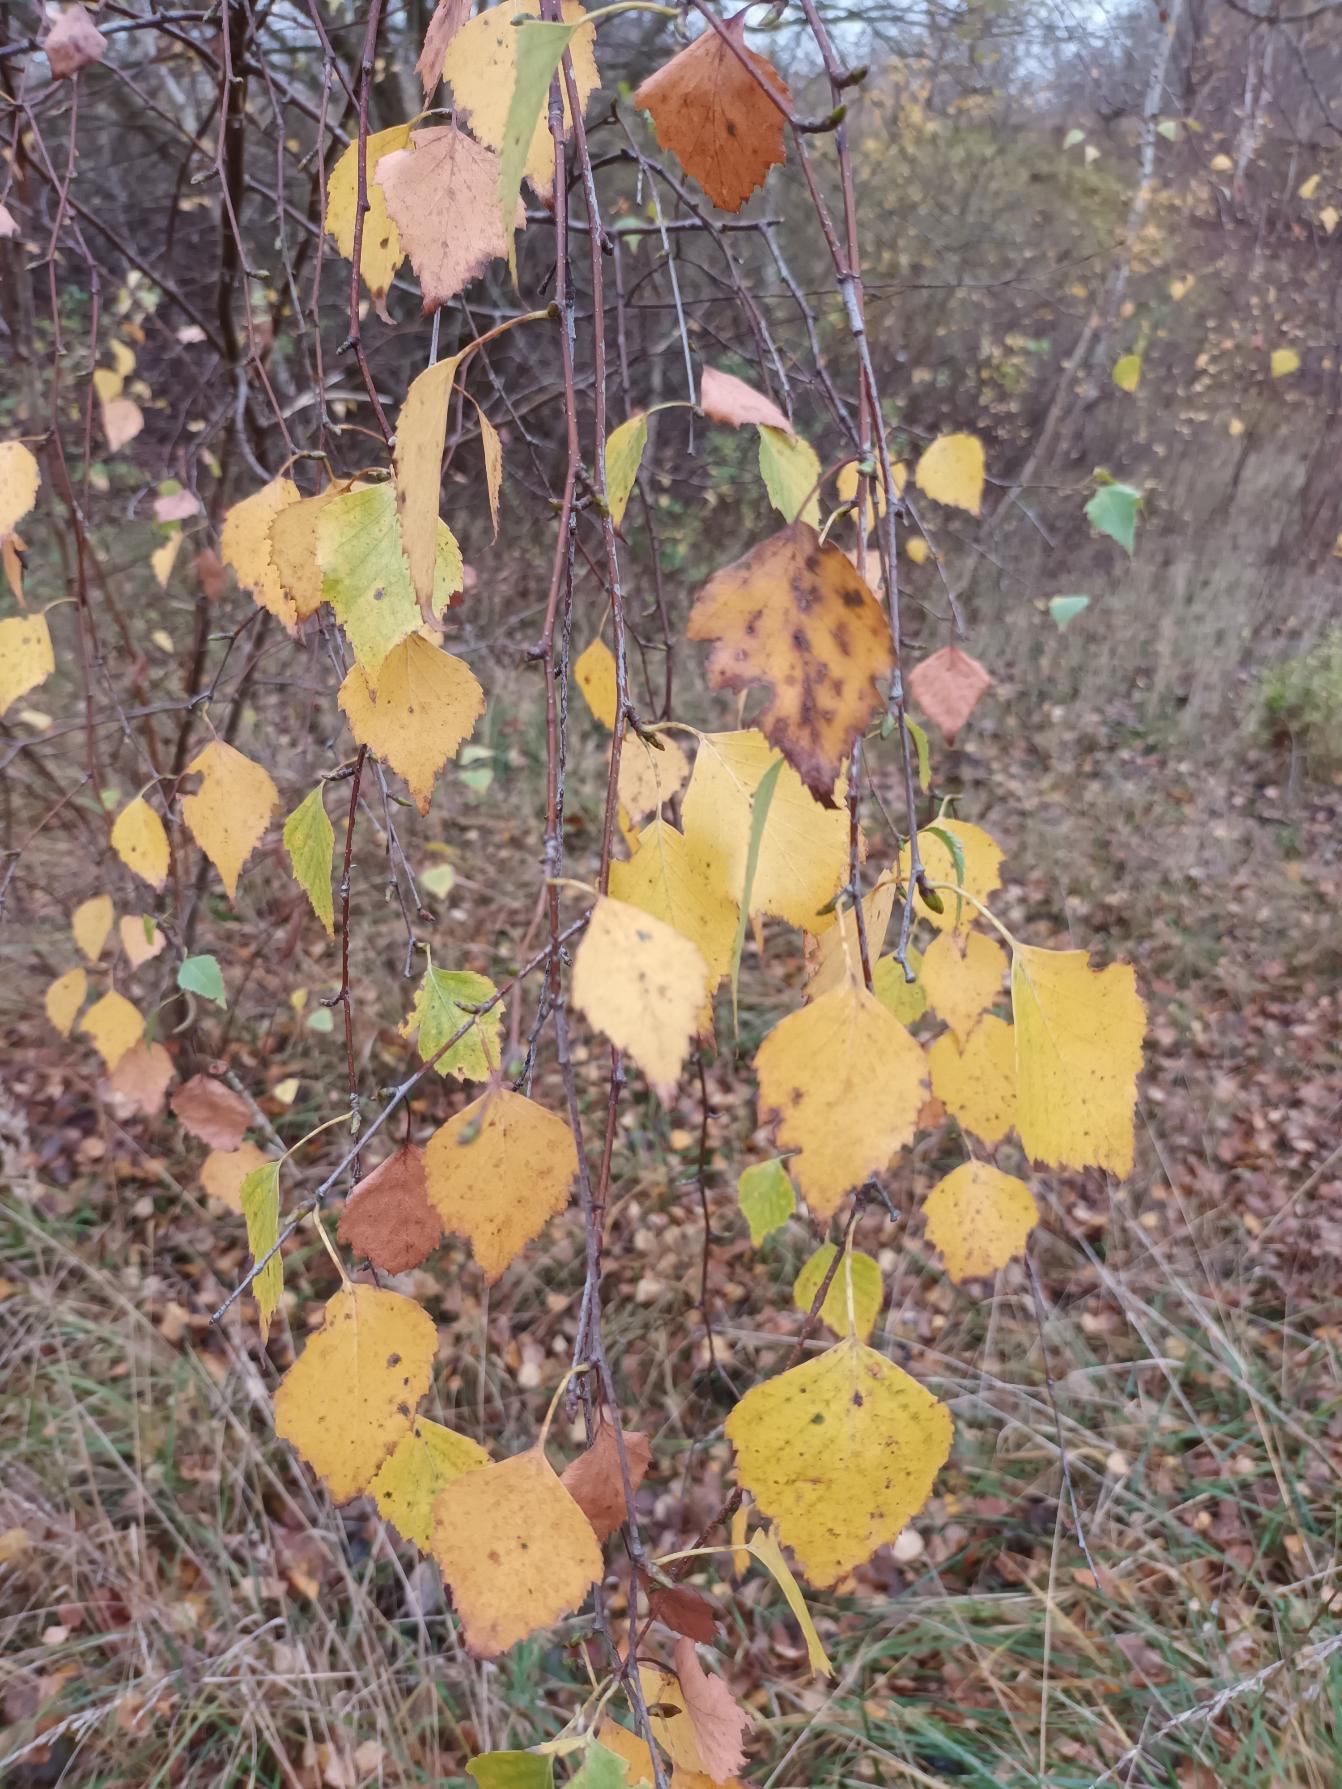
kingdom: Plantae
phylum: Tracheophyta
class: Magnoliopsida
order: Fagales
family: Betulaceae
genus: Betula
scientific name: Betula pendula
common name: Vorte-birk
